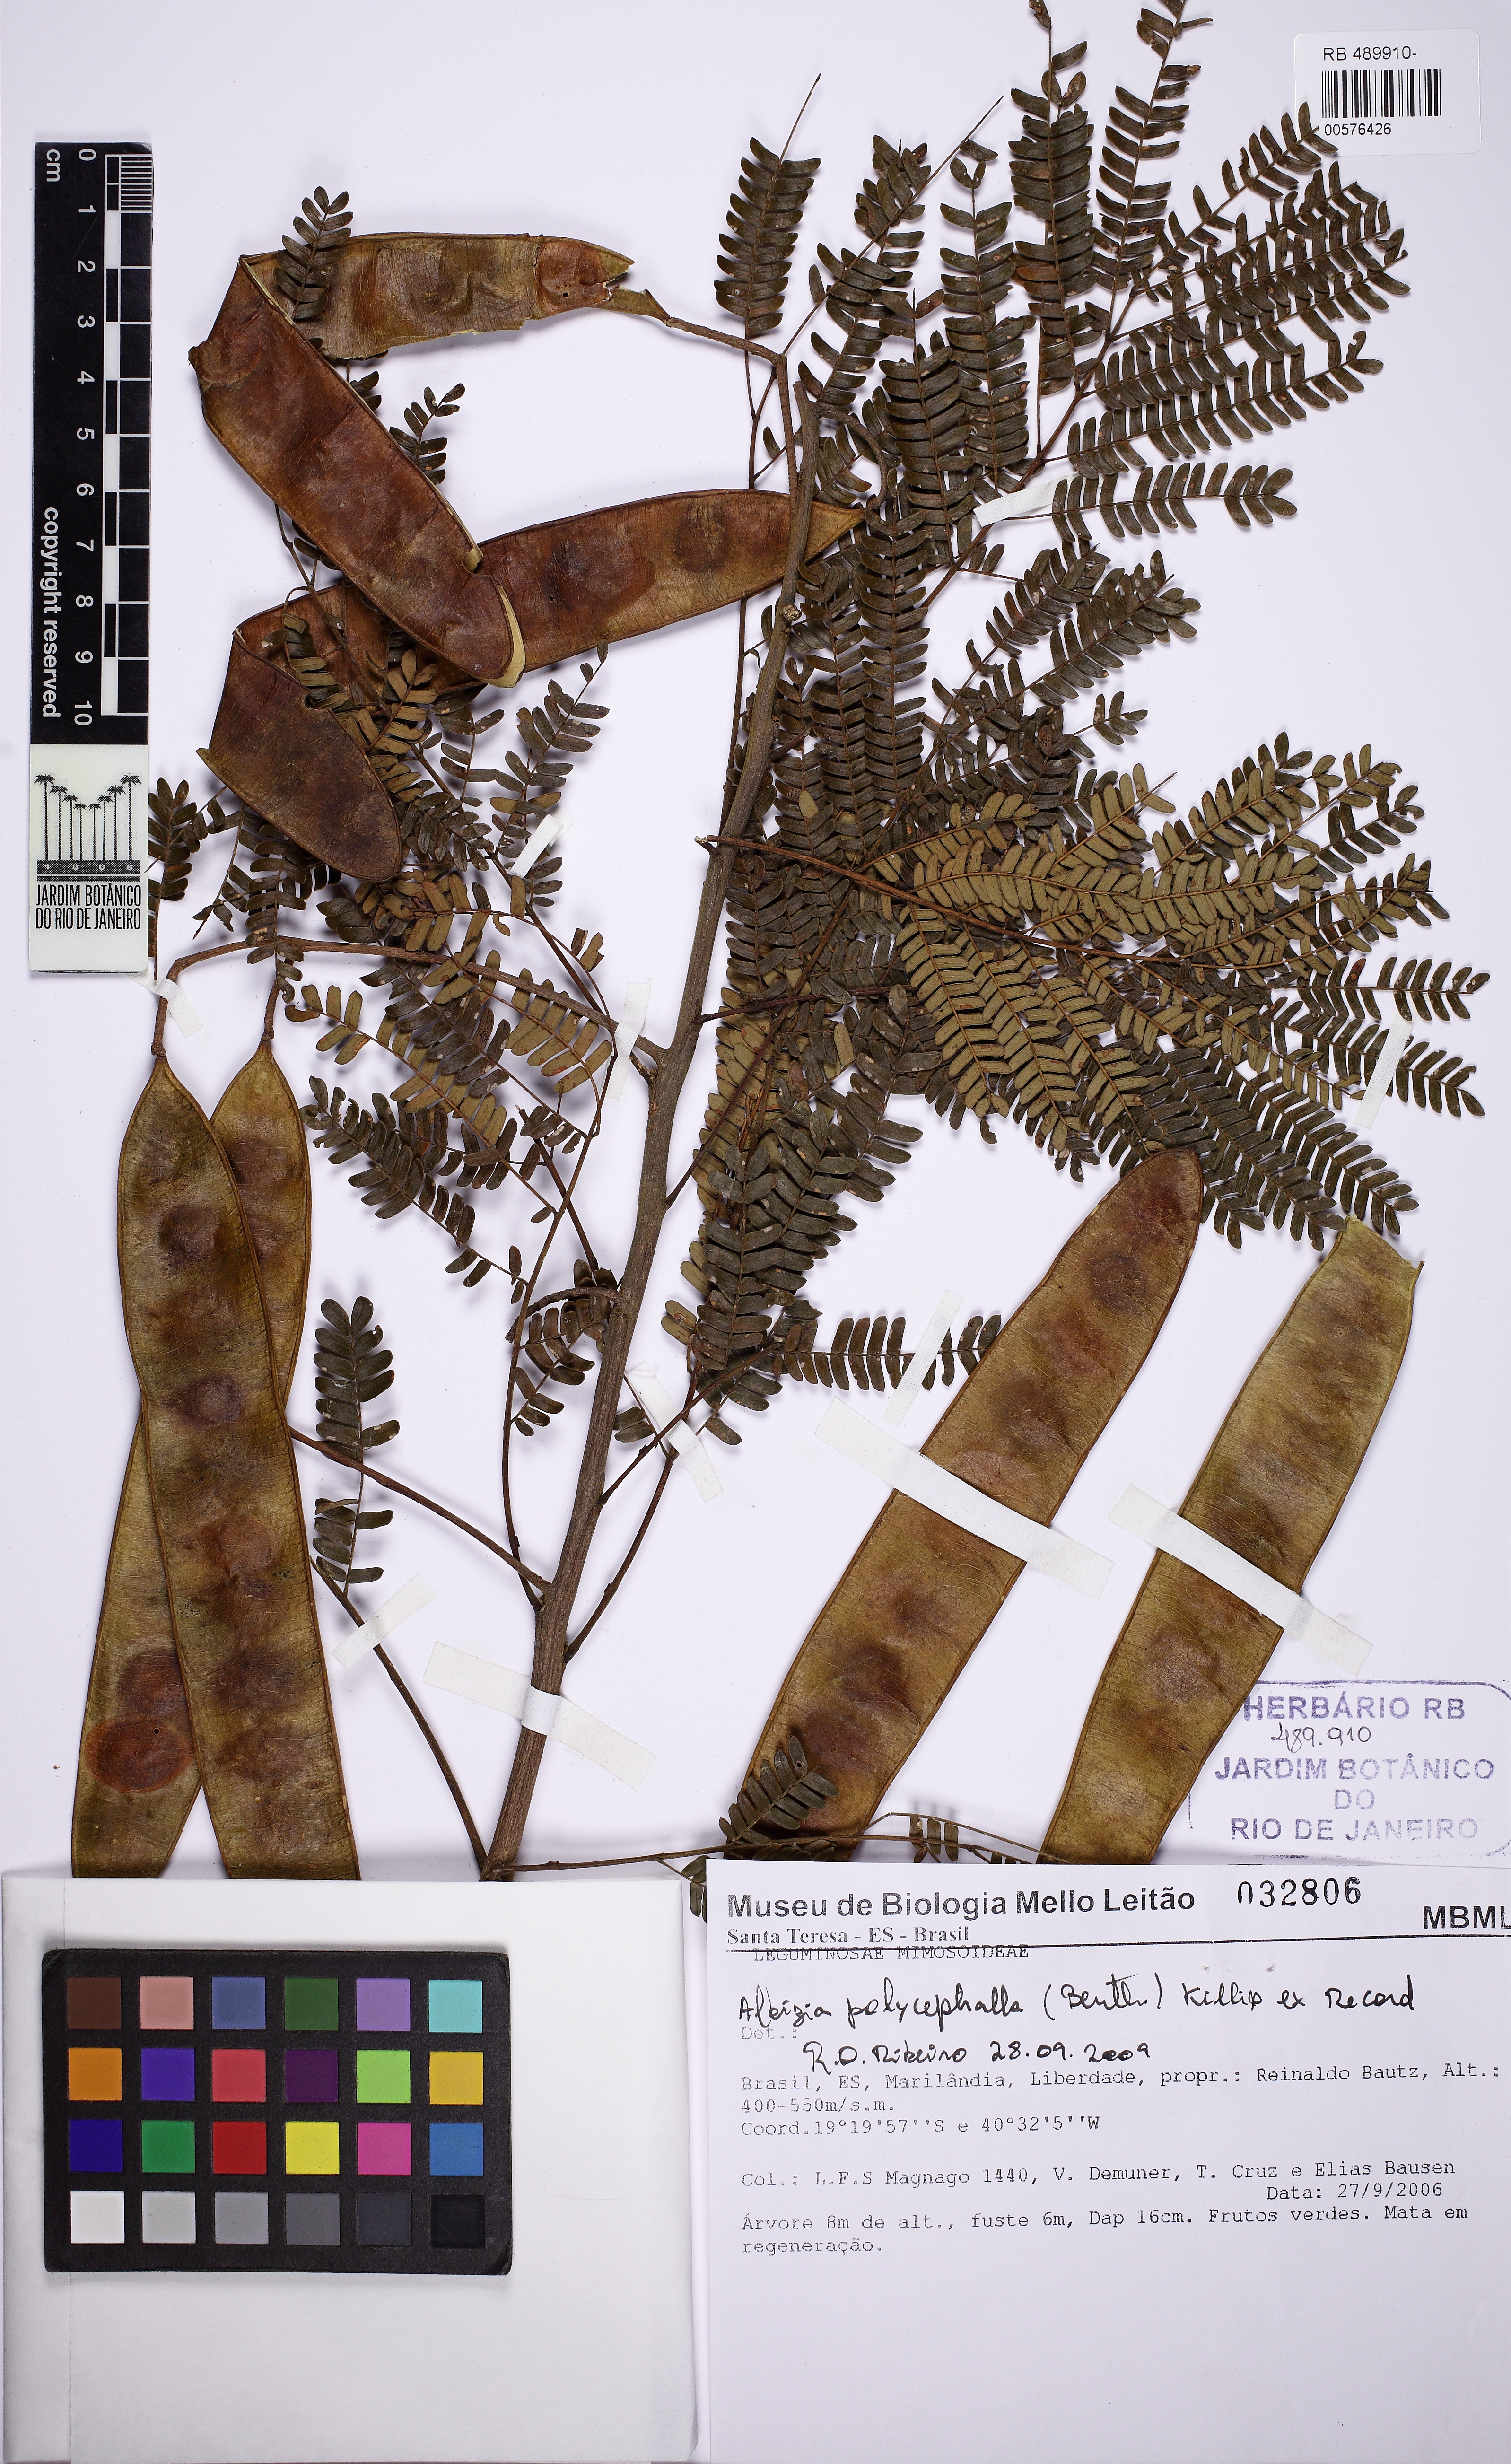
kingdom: Plantae
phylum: Tracheophyta
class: Magnoliopsida
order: Fabales
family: Fabaceae
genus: Albizia
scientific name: Albizia polycephala
